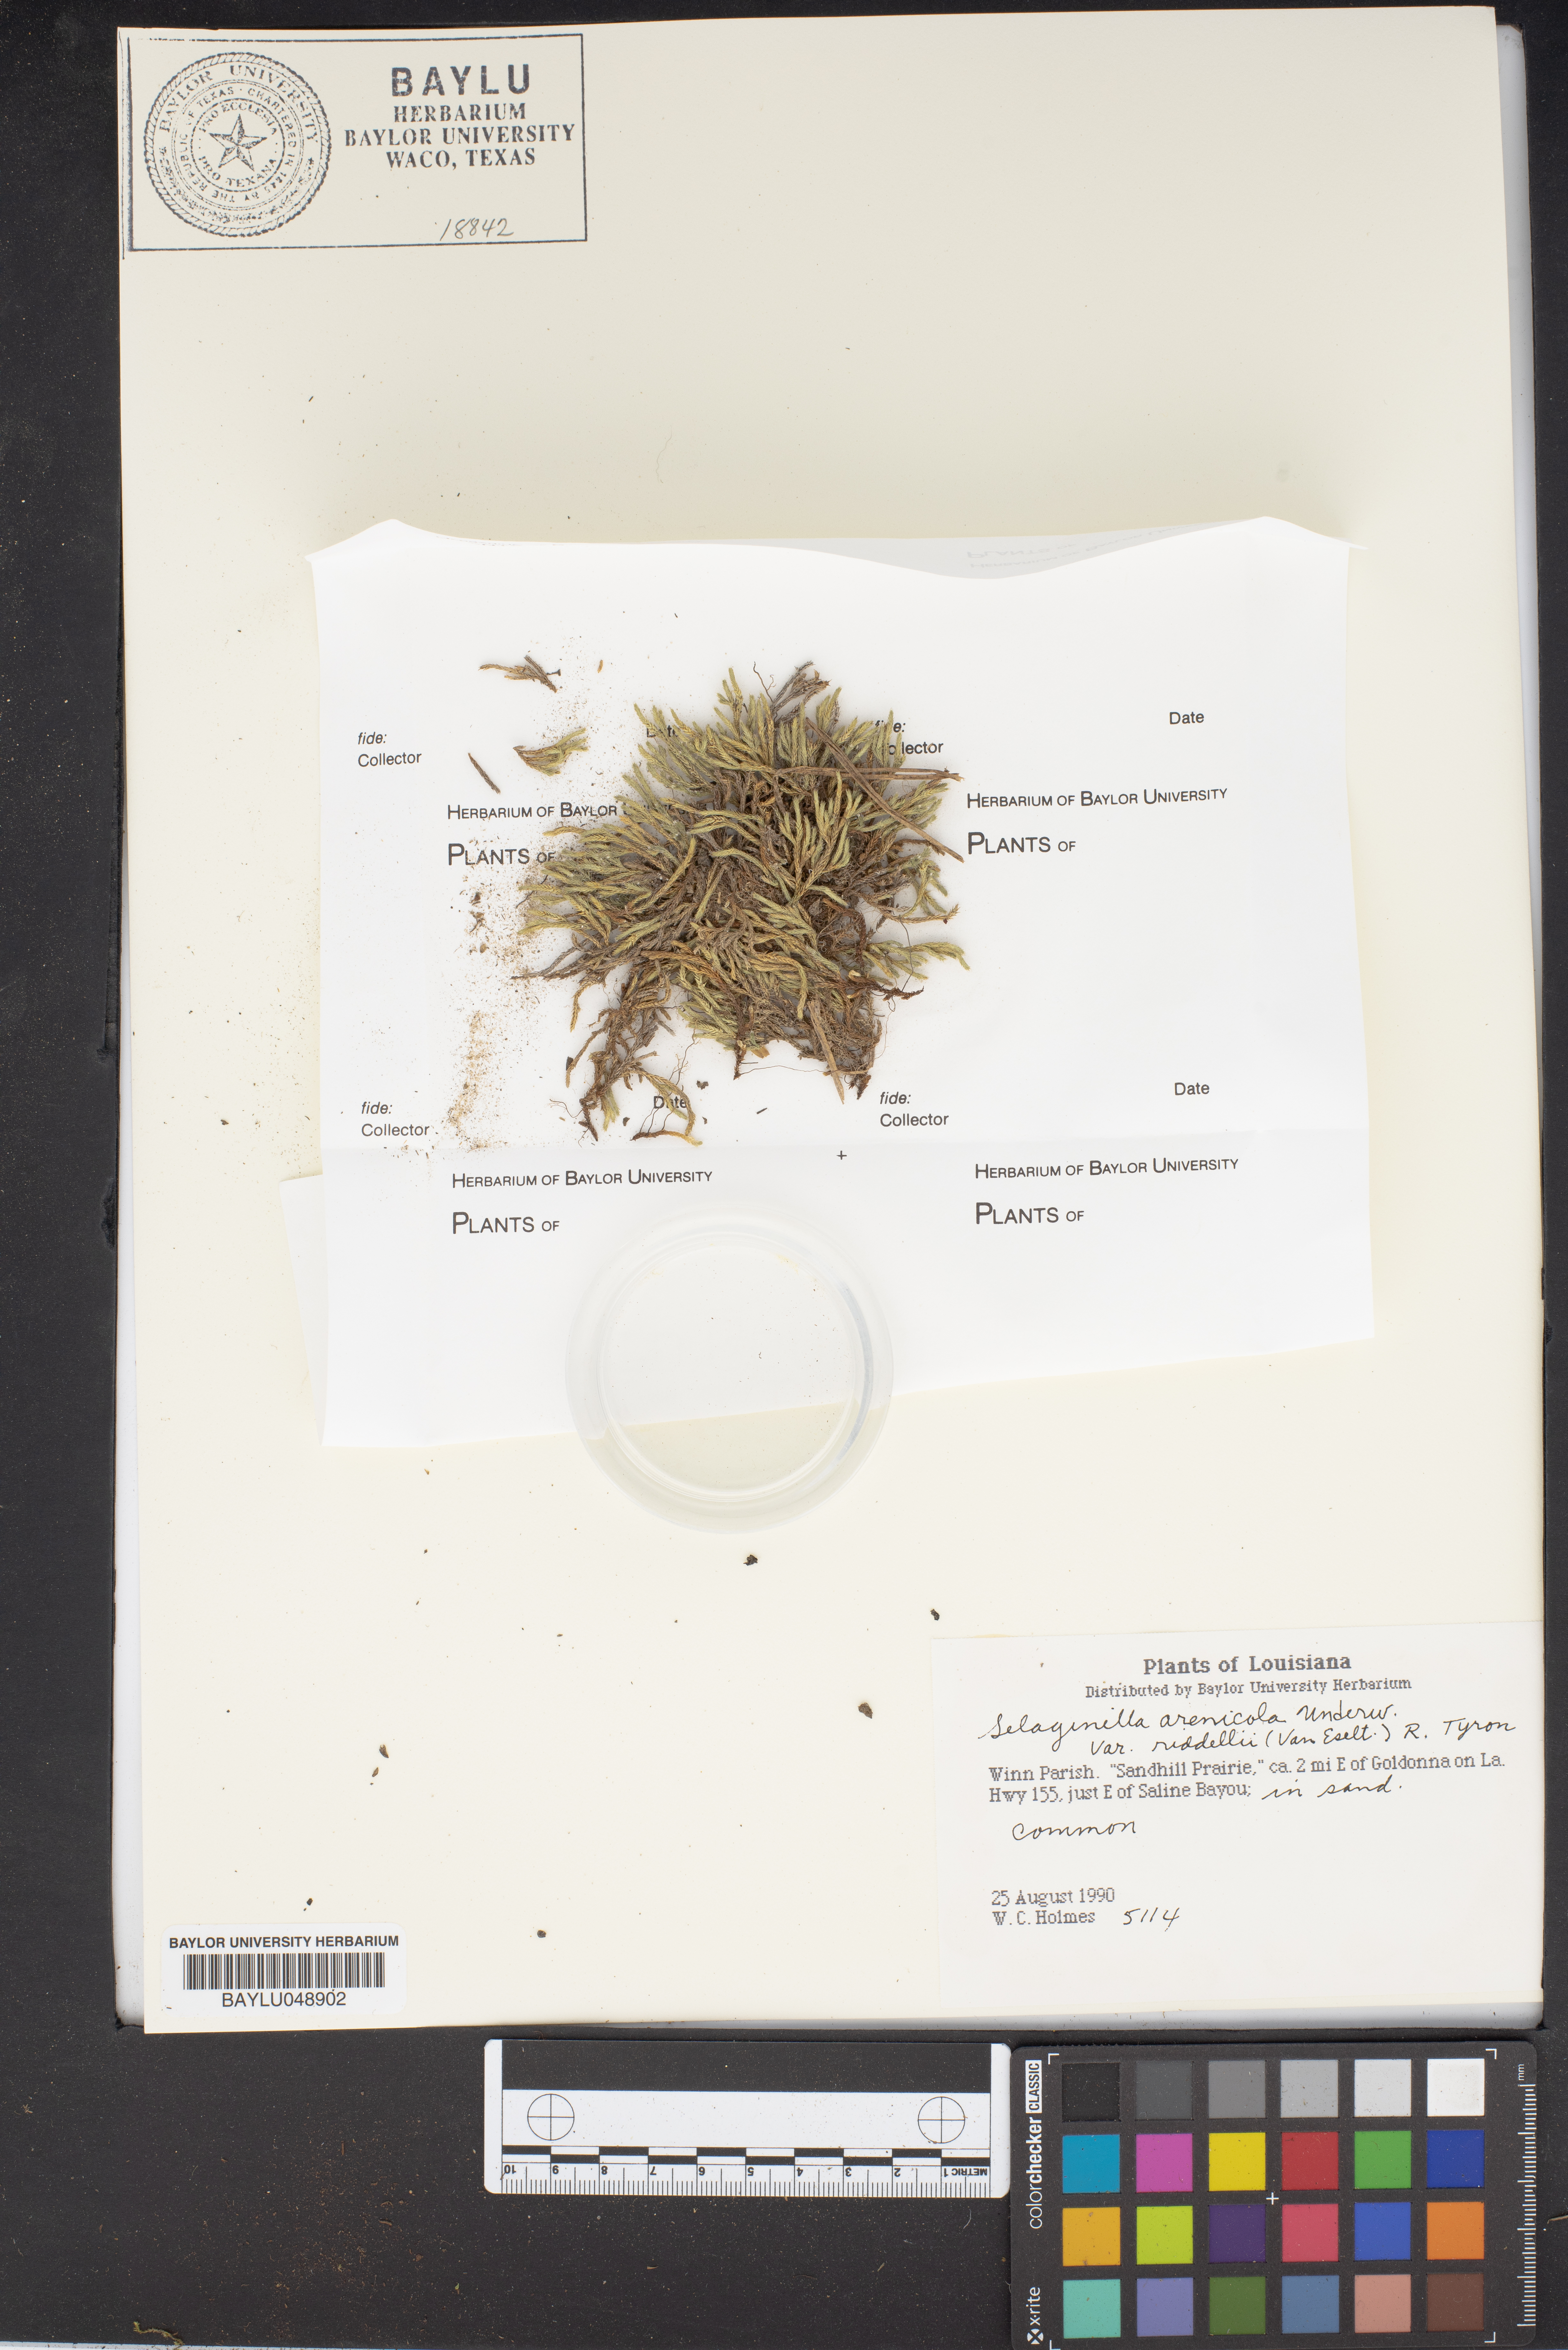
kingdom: Plantae
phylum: Tracheophyta
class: Lycopodiopsida
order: Selaginellales
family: Selaginellaceae
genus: Selaginella
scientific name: Selaginella corallina
